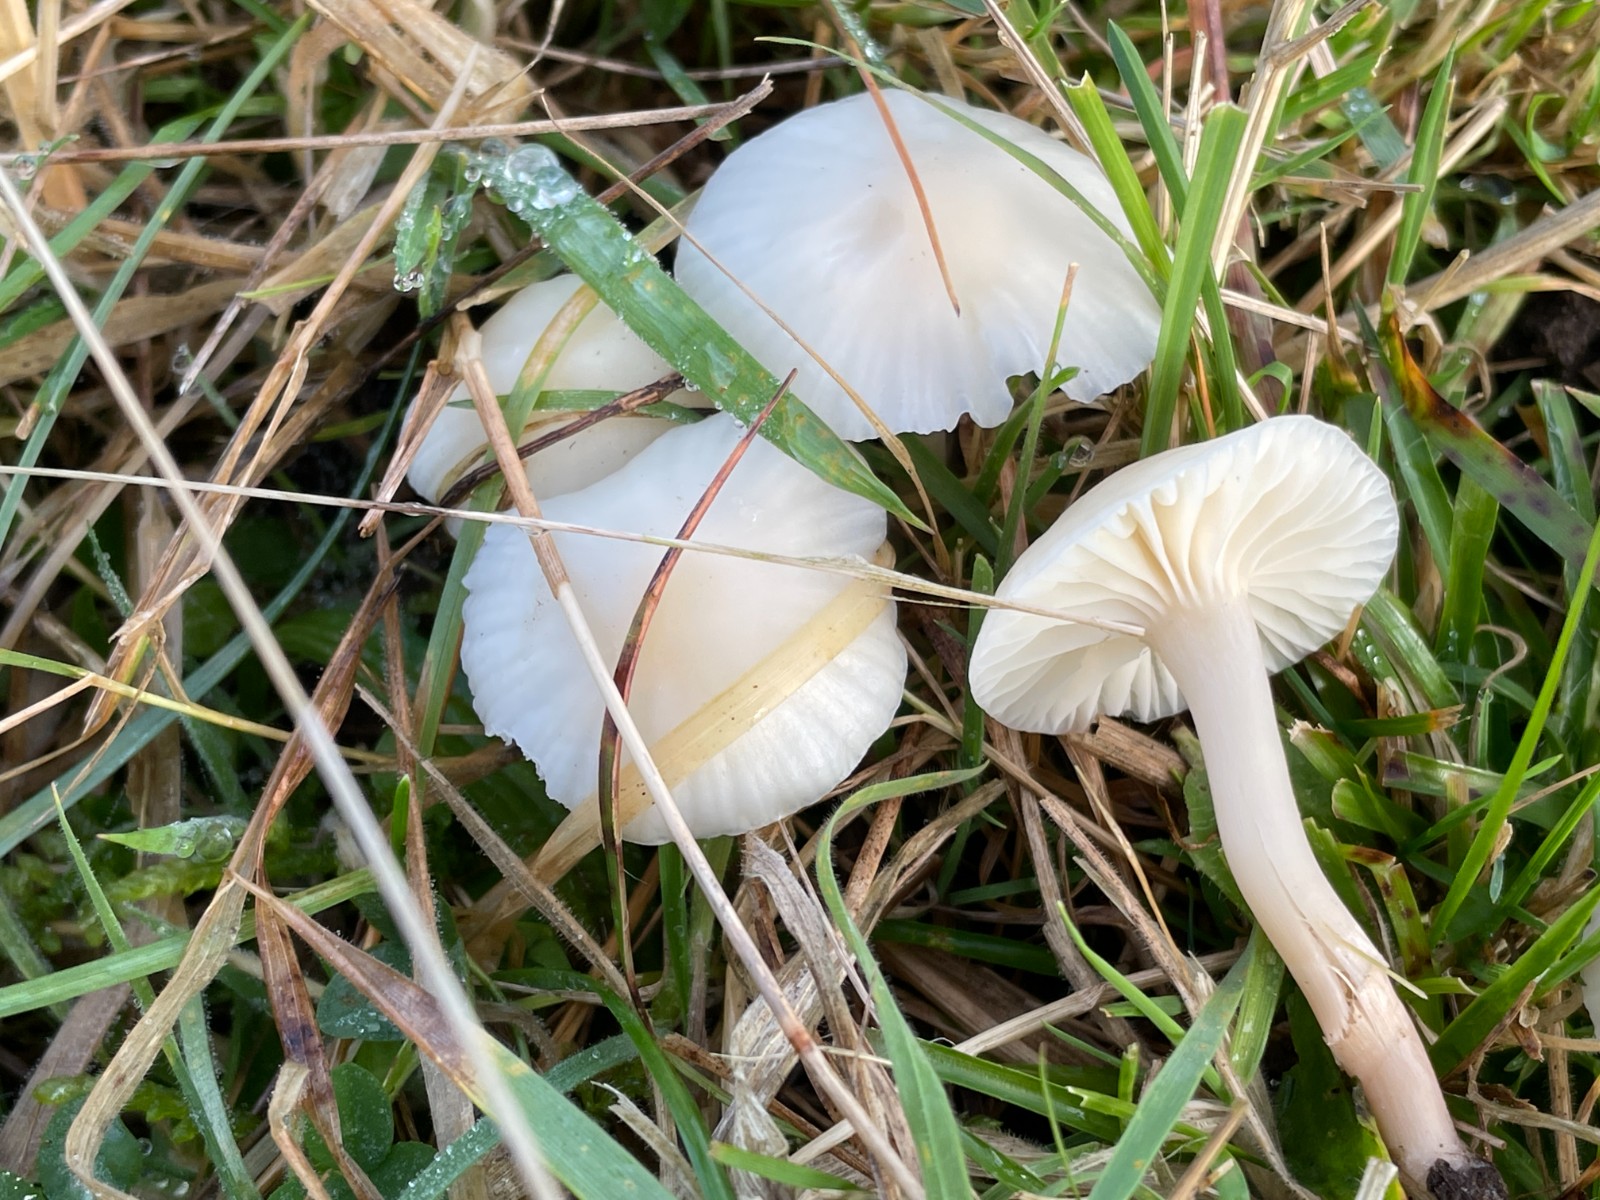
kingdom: Fungi
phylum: Basidiomycota
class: Agaricomycetes
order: Agaricales
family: Hygrophoraceae
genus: Cuphophyllus
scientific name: Cuphophyllus virgineus
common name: snehvid vokshat
